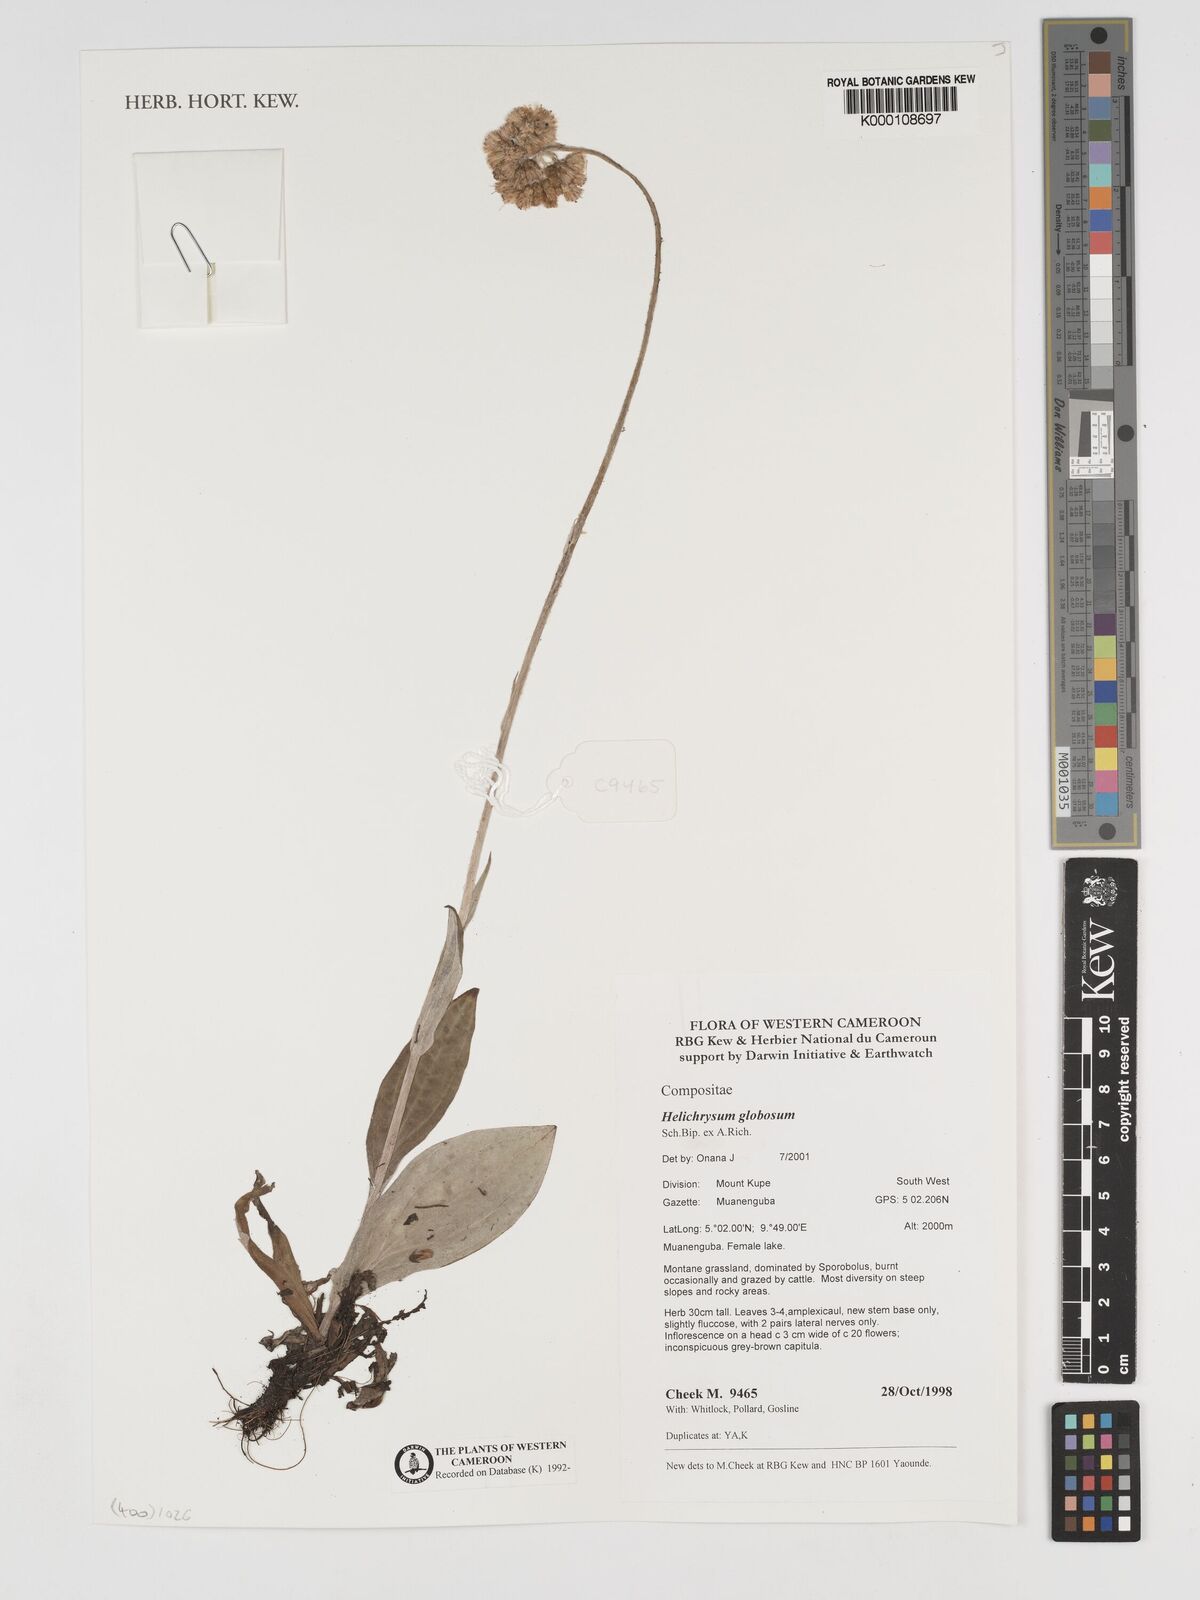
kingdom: Plantae
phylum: Tracheophyta
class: Magnoliopsida
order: Asterales
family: Asteraceae
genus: Helichrysum
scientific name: Helichrysum
